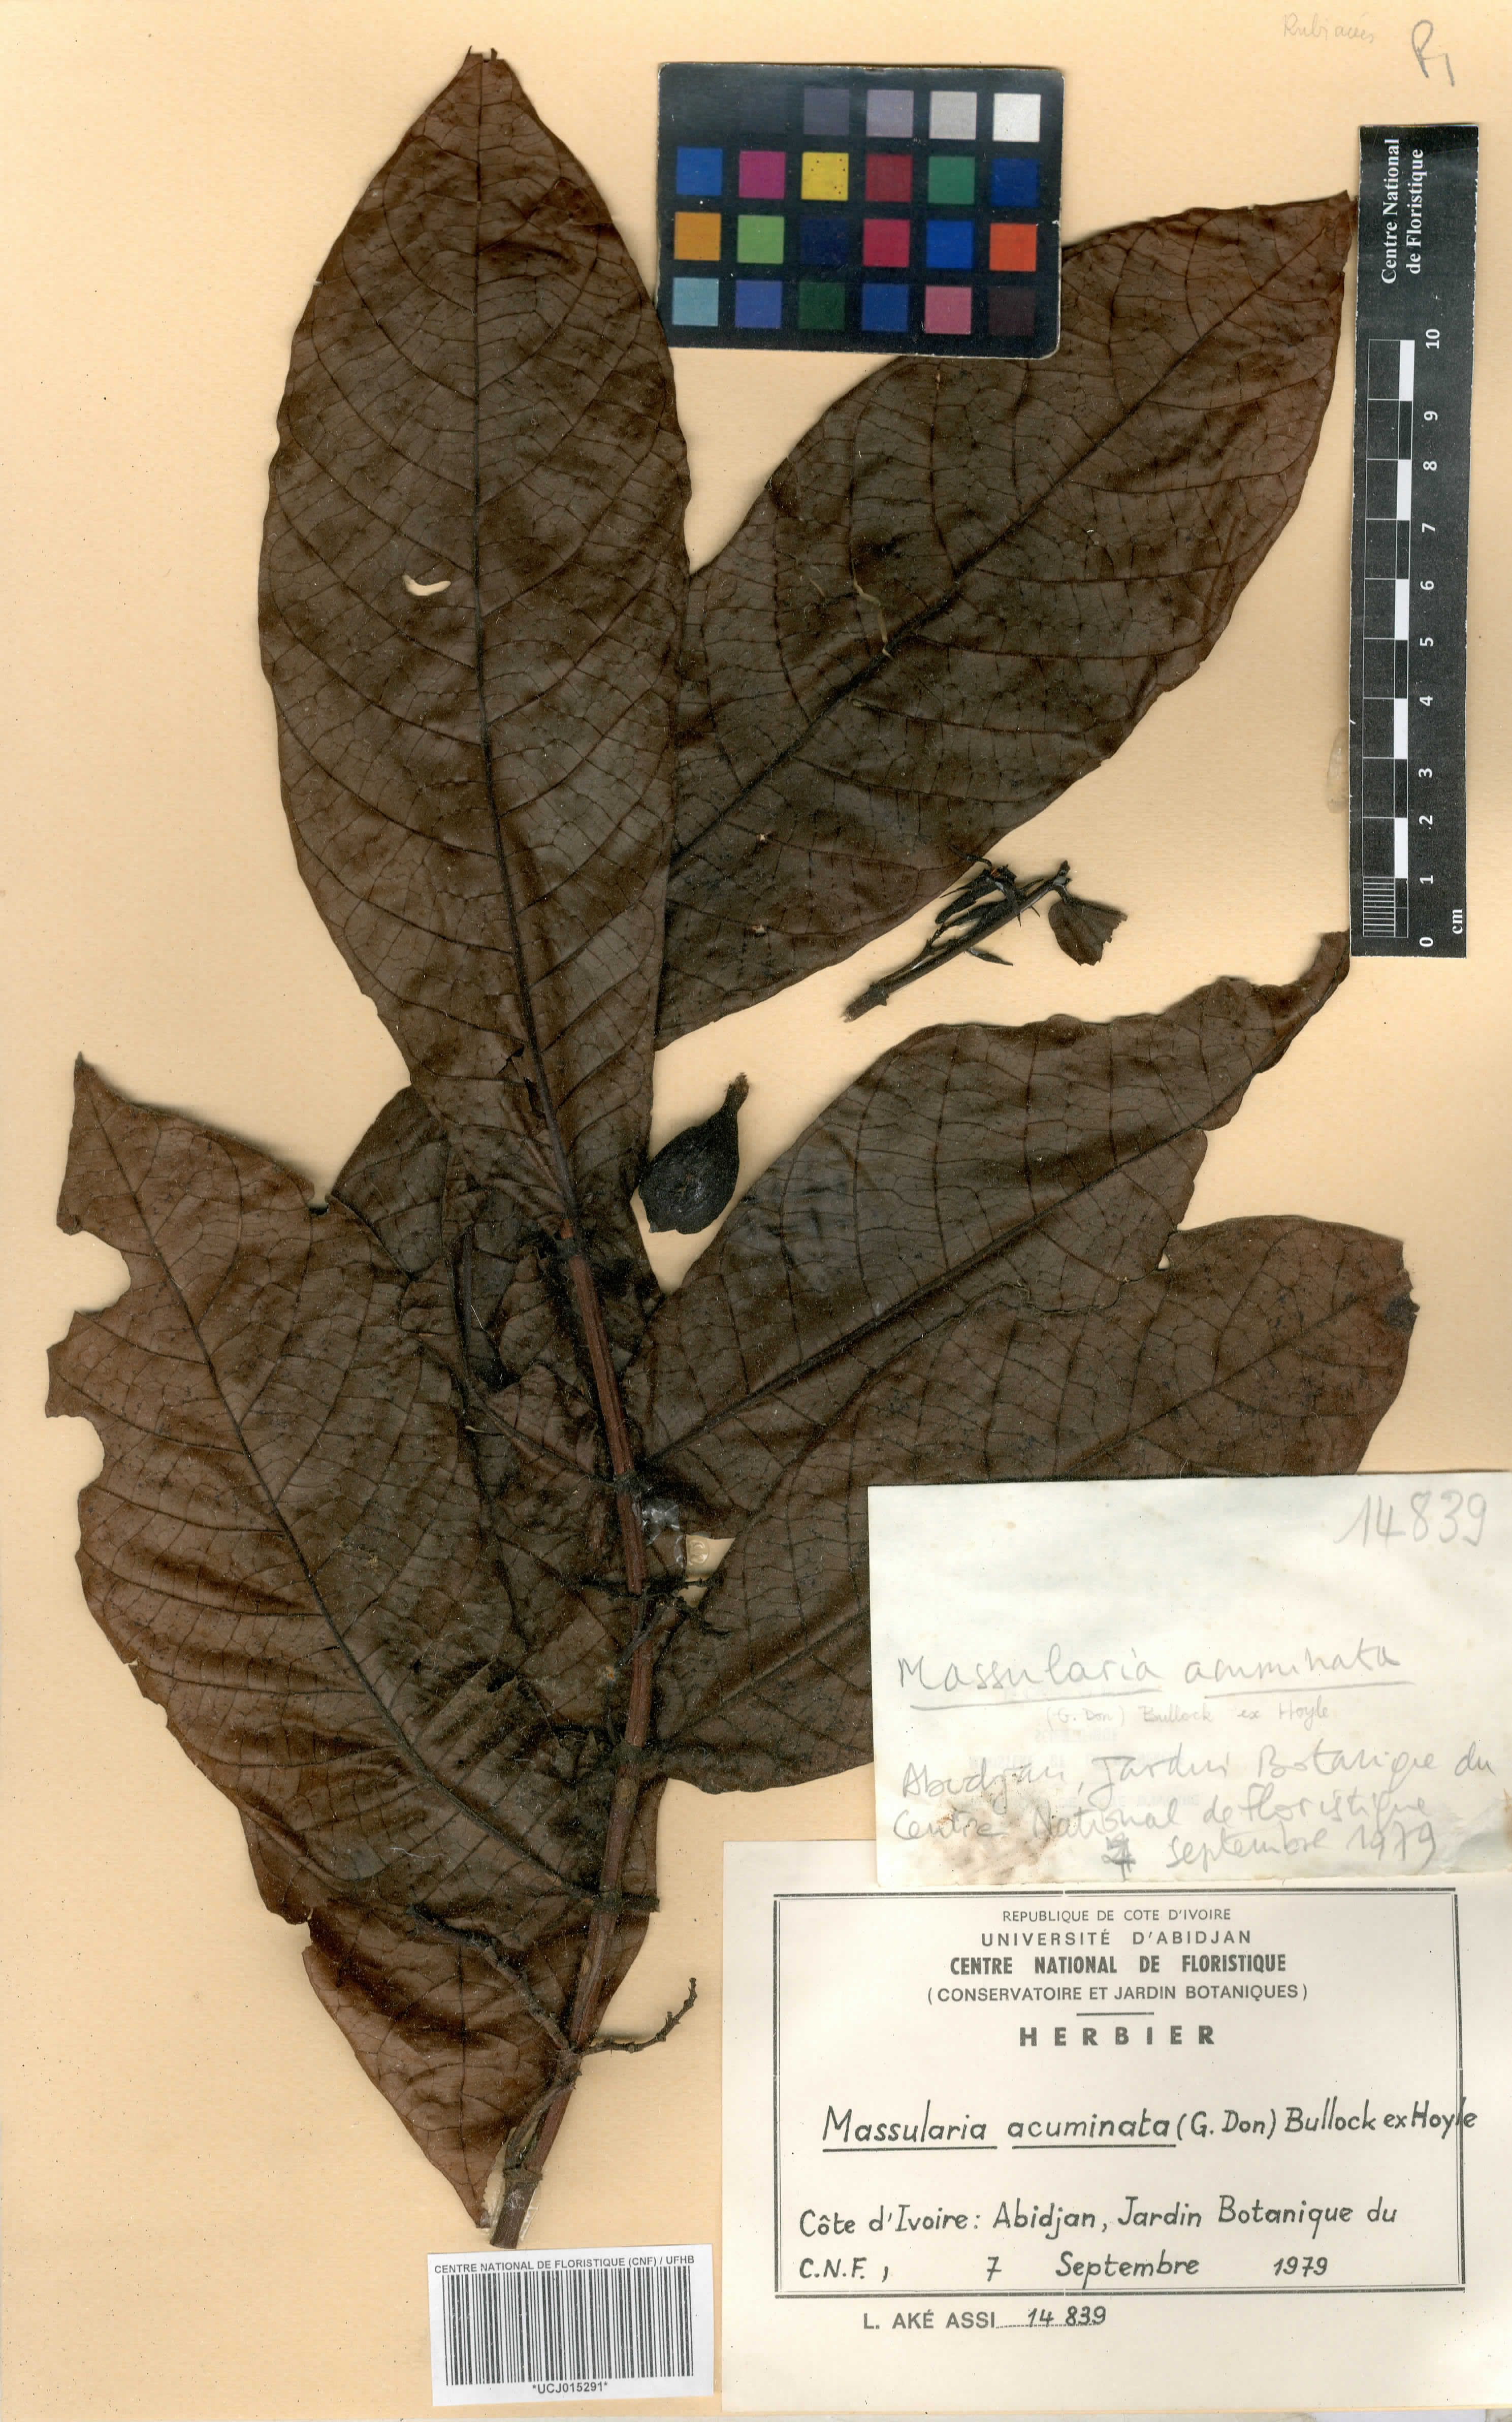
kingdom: Plantae
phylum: Tracheophyta
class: Magnoliopsida
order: Gentianales
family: Rubiaceae
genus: Massularia
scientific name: Massularia acuminata
